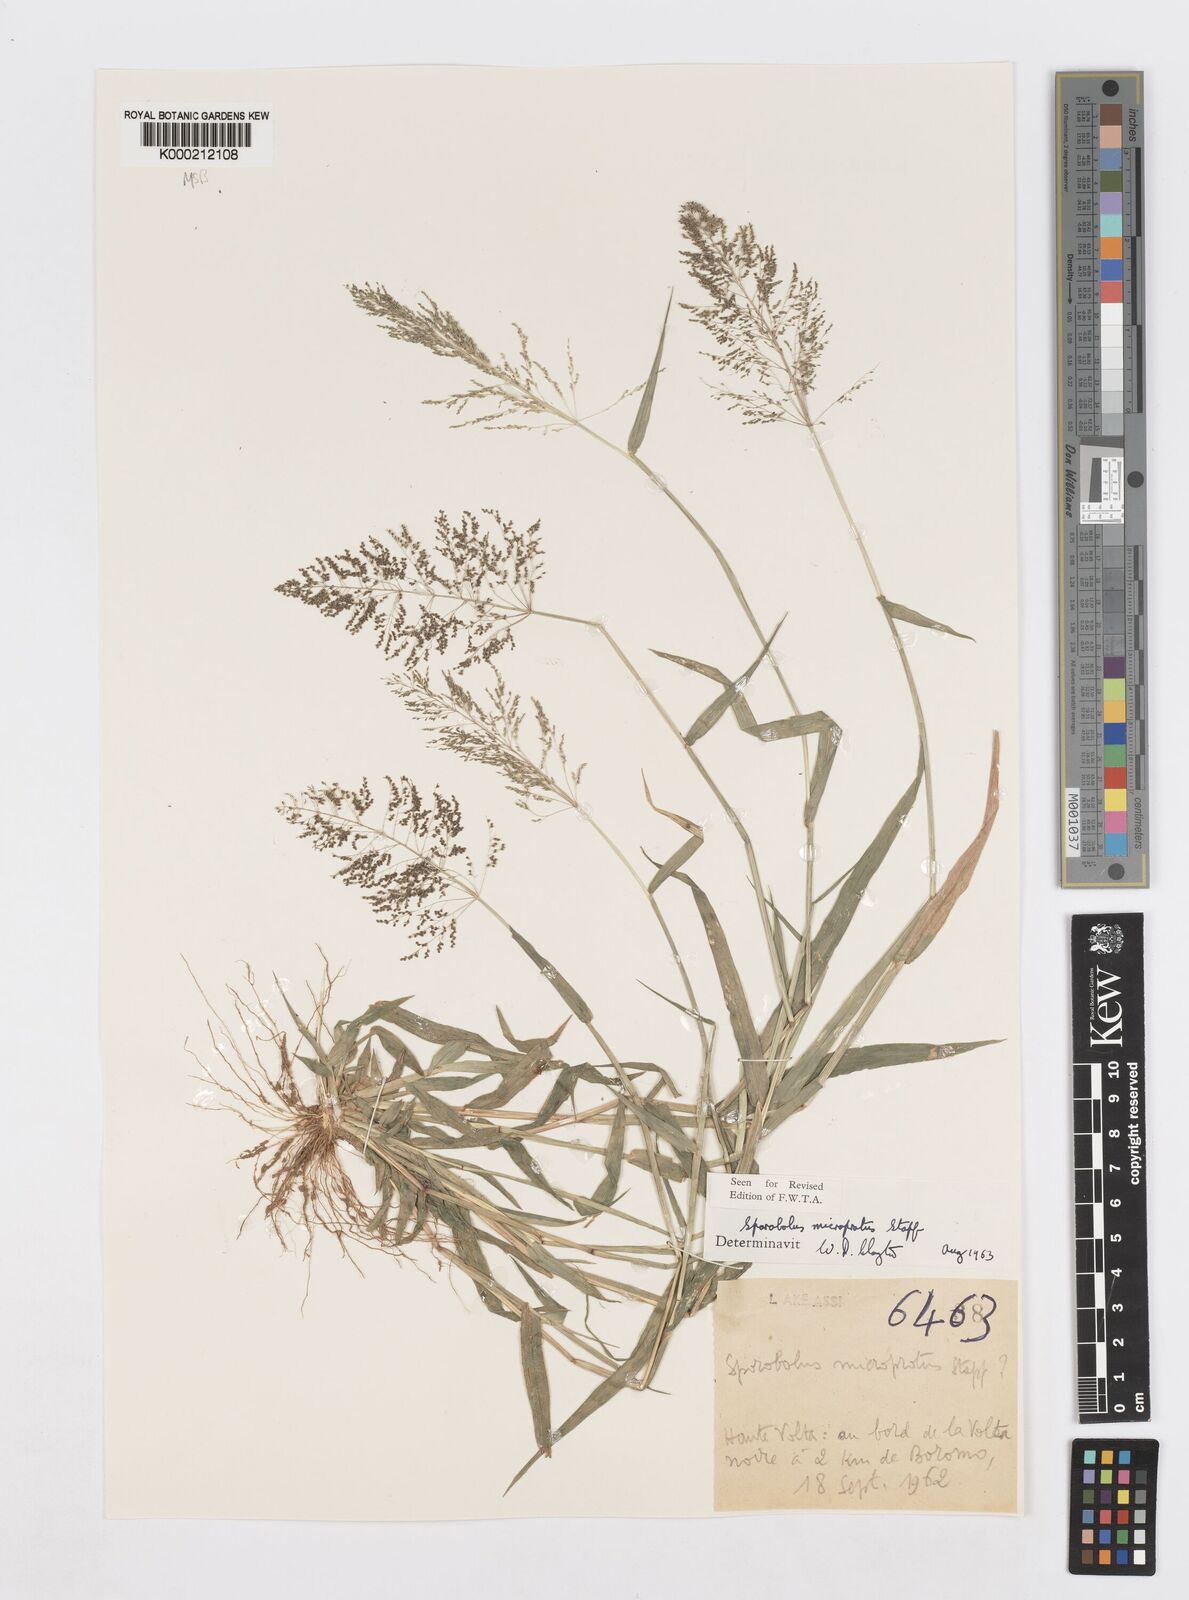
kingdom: Plantae
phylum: Tracheophyta
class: Liliopsida
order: Poales
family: Poaceae
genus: Sporobolus
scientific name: Sporobolus microprotus
